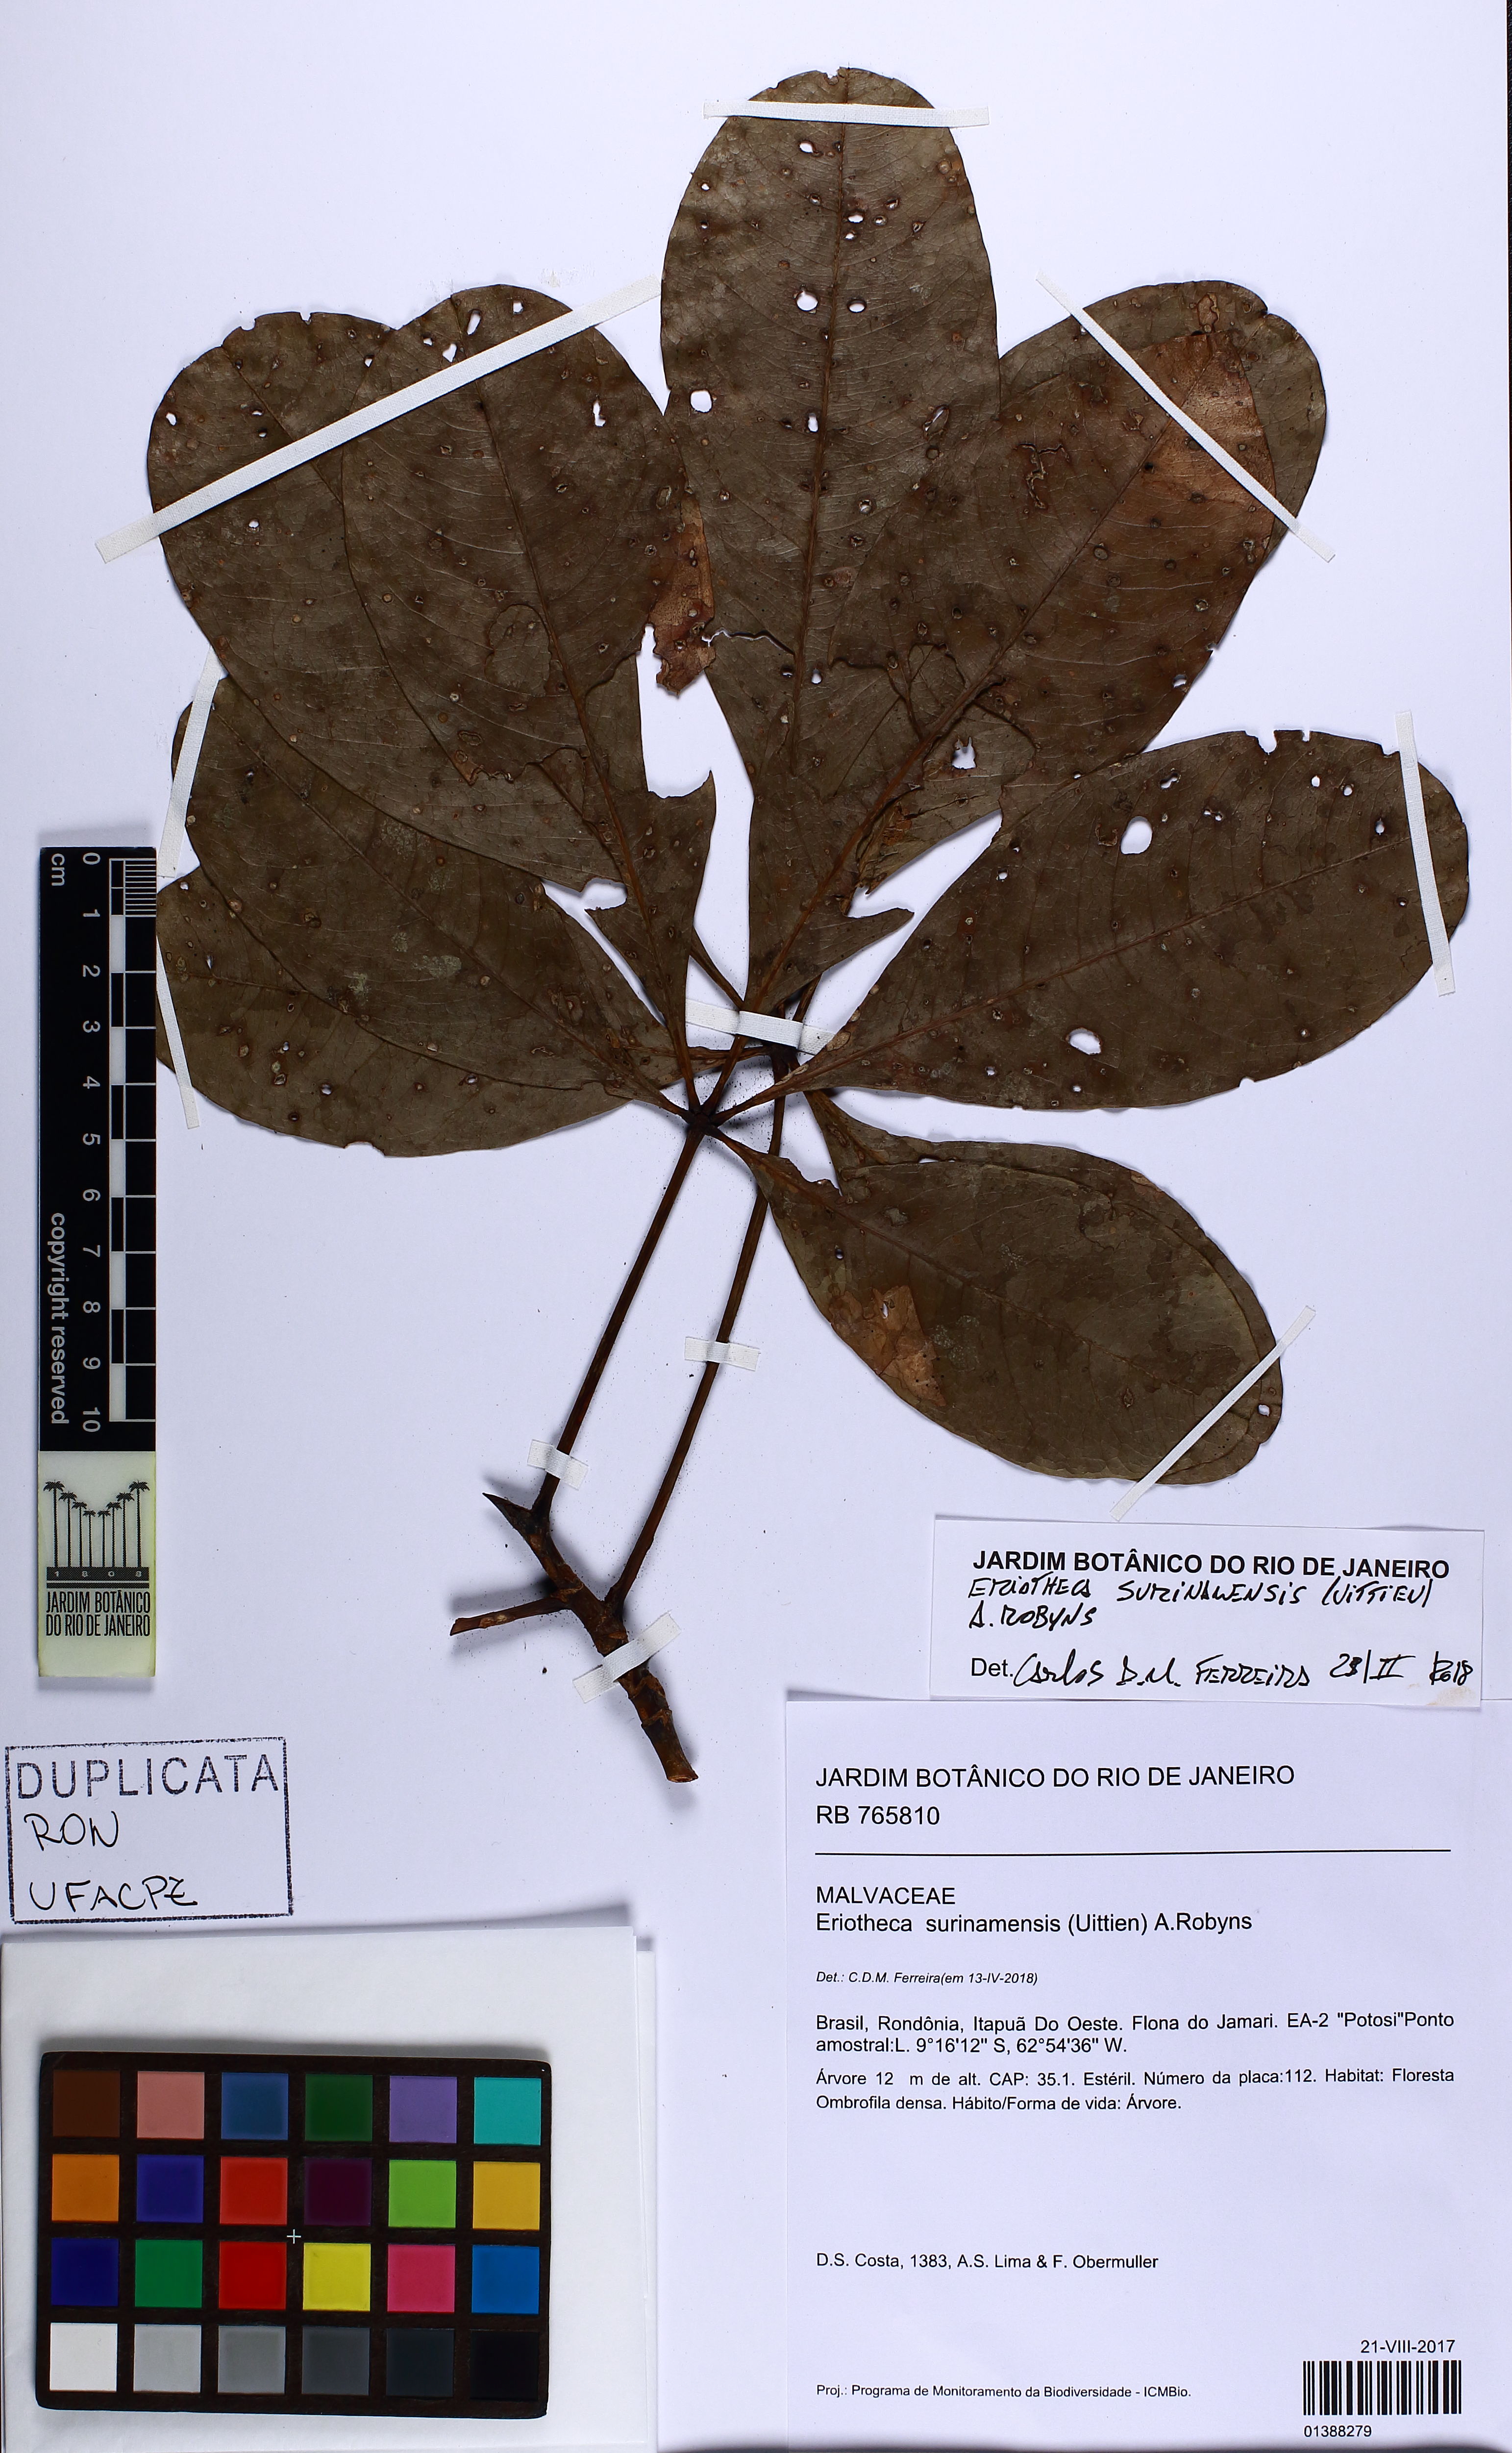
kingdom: Plantae
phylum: Tracheophyta
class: Magnoliopsida
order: Malvales
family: Malvaceae
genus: Eriotheca
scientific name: Eriotheca surinamensis
